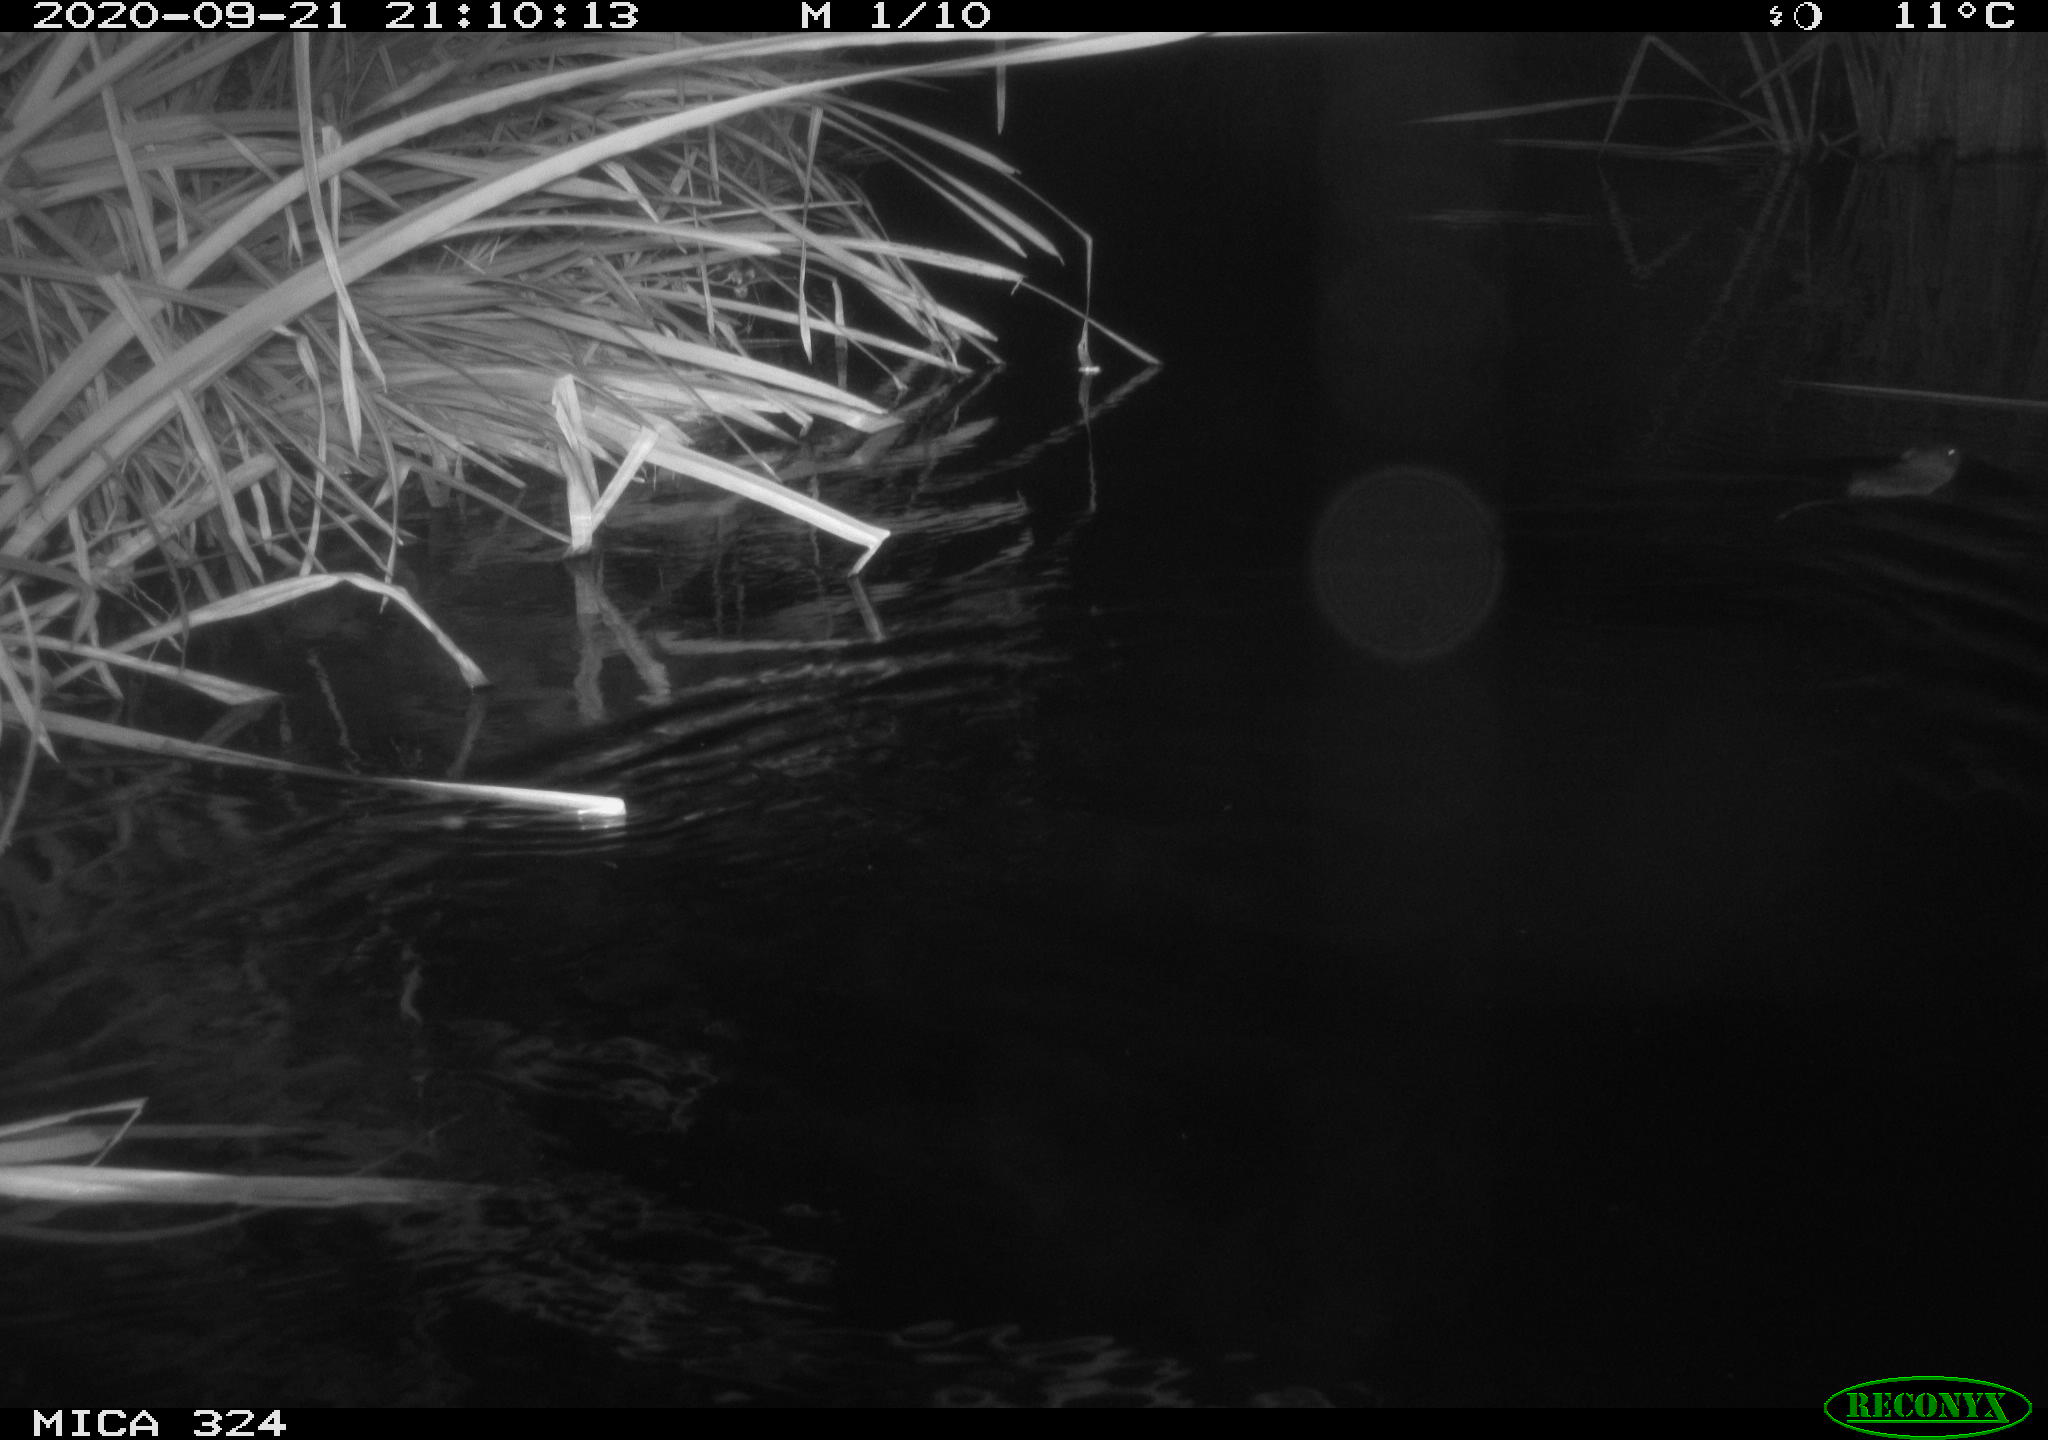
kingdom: Animalia
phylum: Chordata
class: Mammalia
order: Rodentia
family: Cricetidae
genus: Ondatra
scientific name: Ondatra zibethicus
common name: Muskrat
